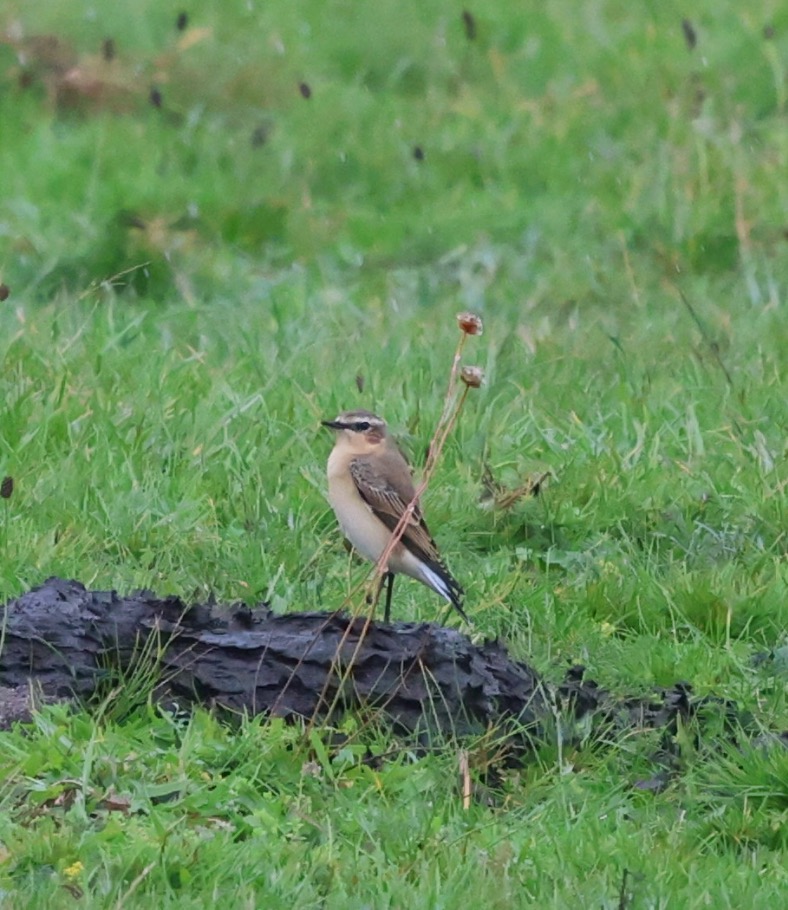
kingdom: Animalia
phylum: Chordata
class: Aves
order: Passeriformes
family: Muscicapidae
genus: Oenanthe
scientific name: Oenanthe oenanthe
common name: Stenpikker
